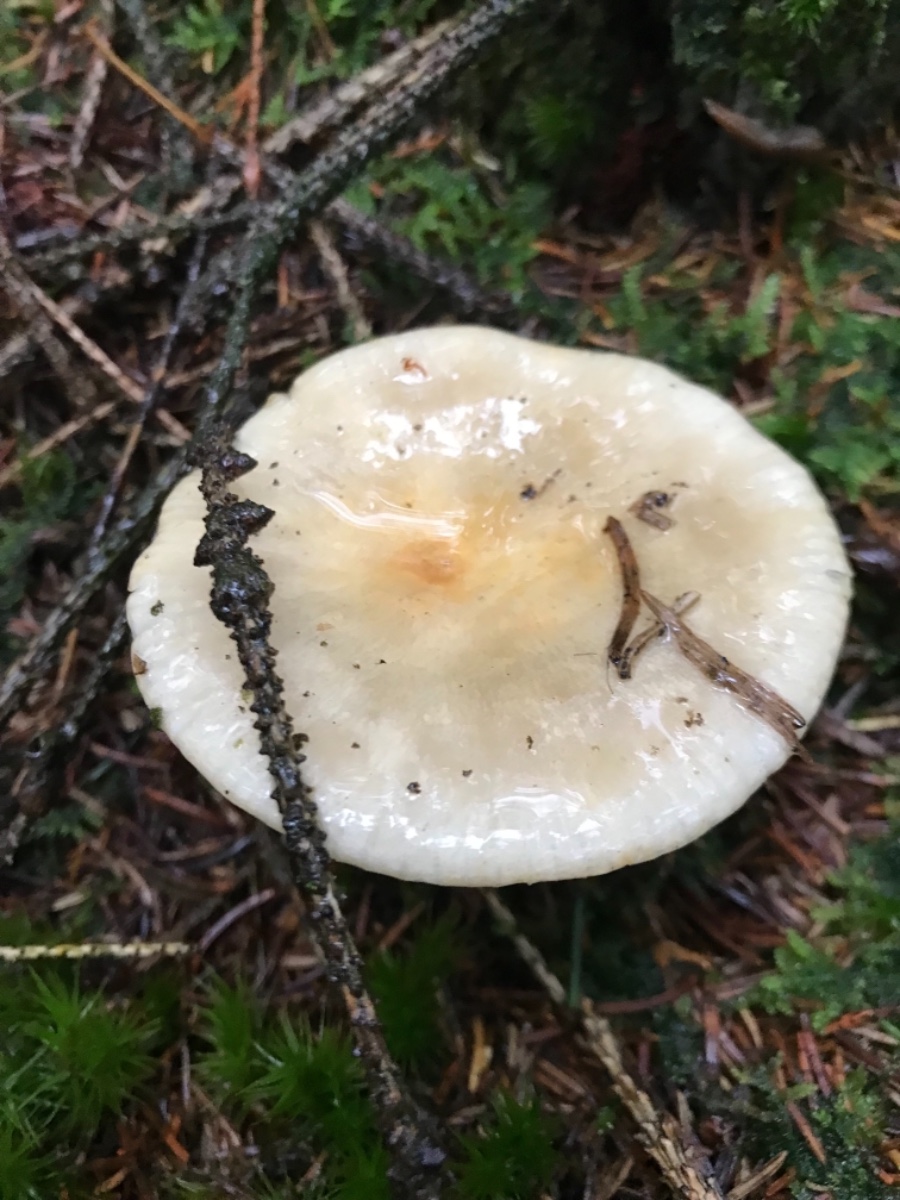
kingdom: Fungi
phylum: Basidiomycota
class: Agaricomycetes
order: Russulales
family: Russulaceae
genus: Russula
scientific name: Russula ochroleuca
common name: okkergul skørhat
